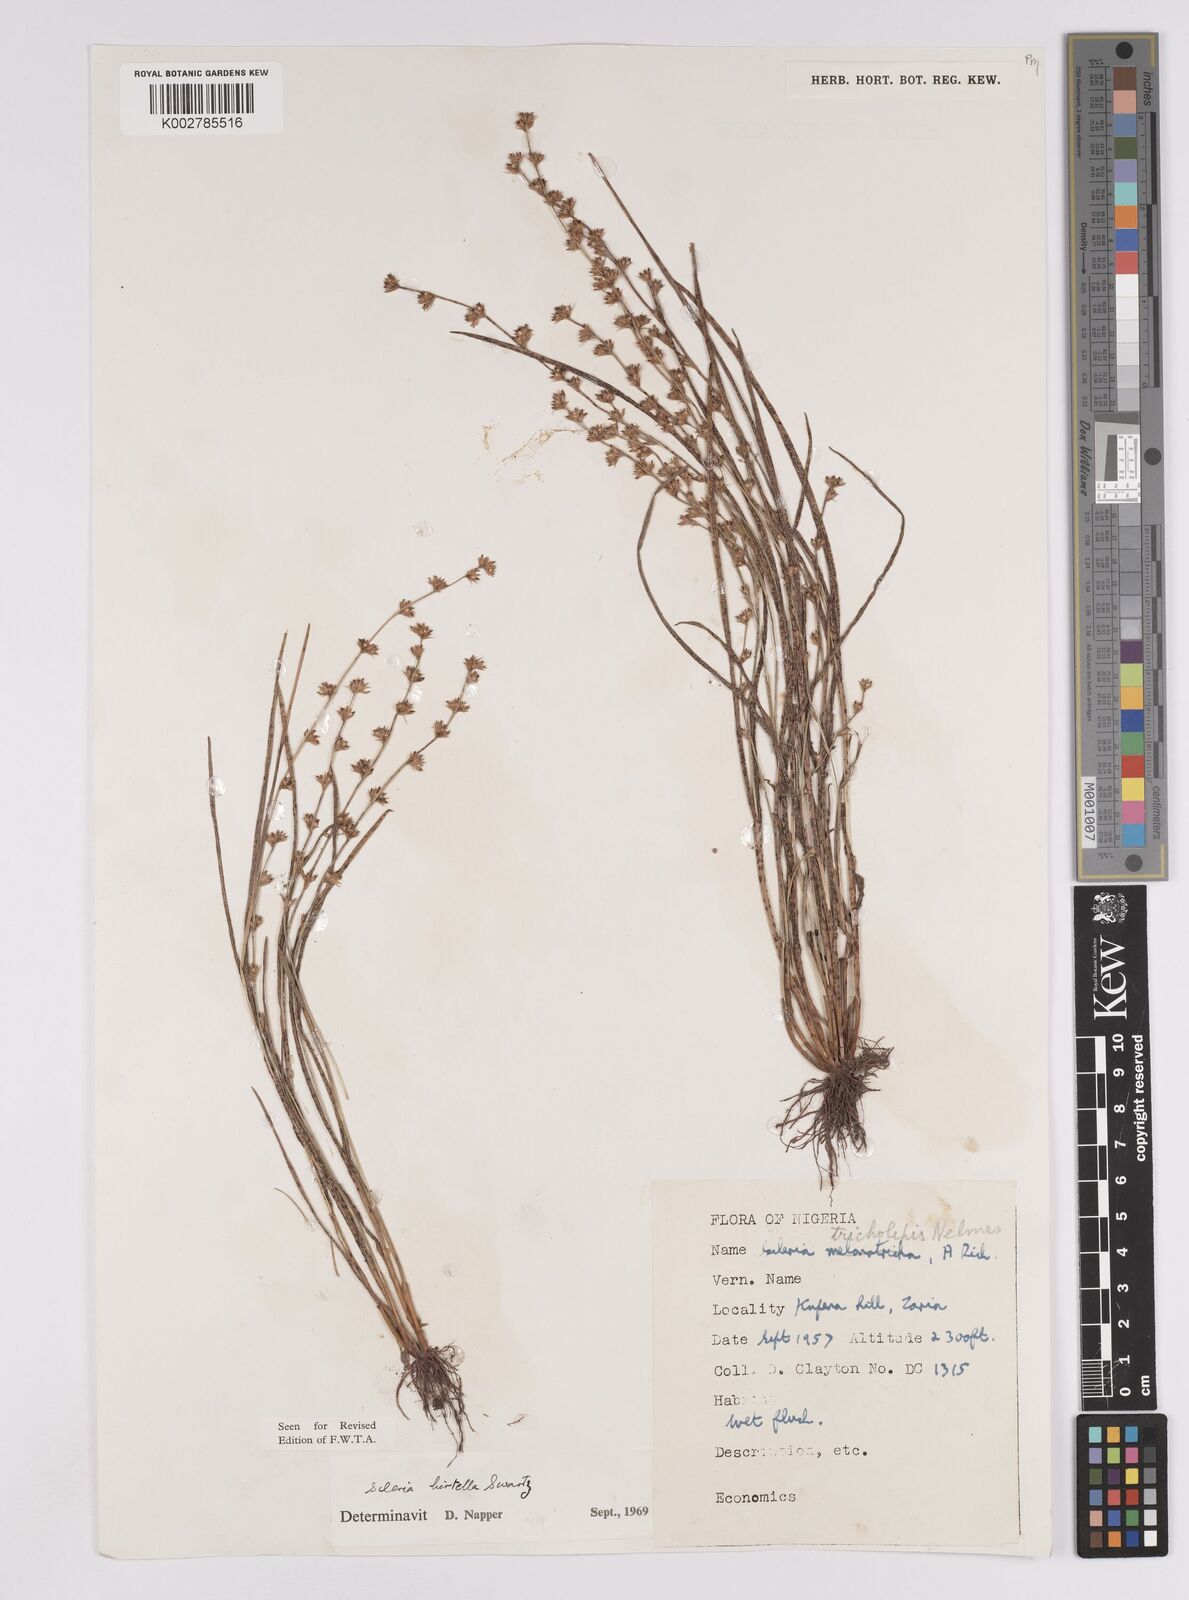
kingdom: Plantae
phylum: Tracheophyta
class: Liliopsida
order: Poales
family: Cyperaceae
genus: Scleria
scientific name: Scleria tricholepis
